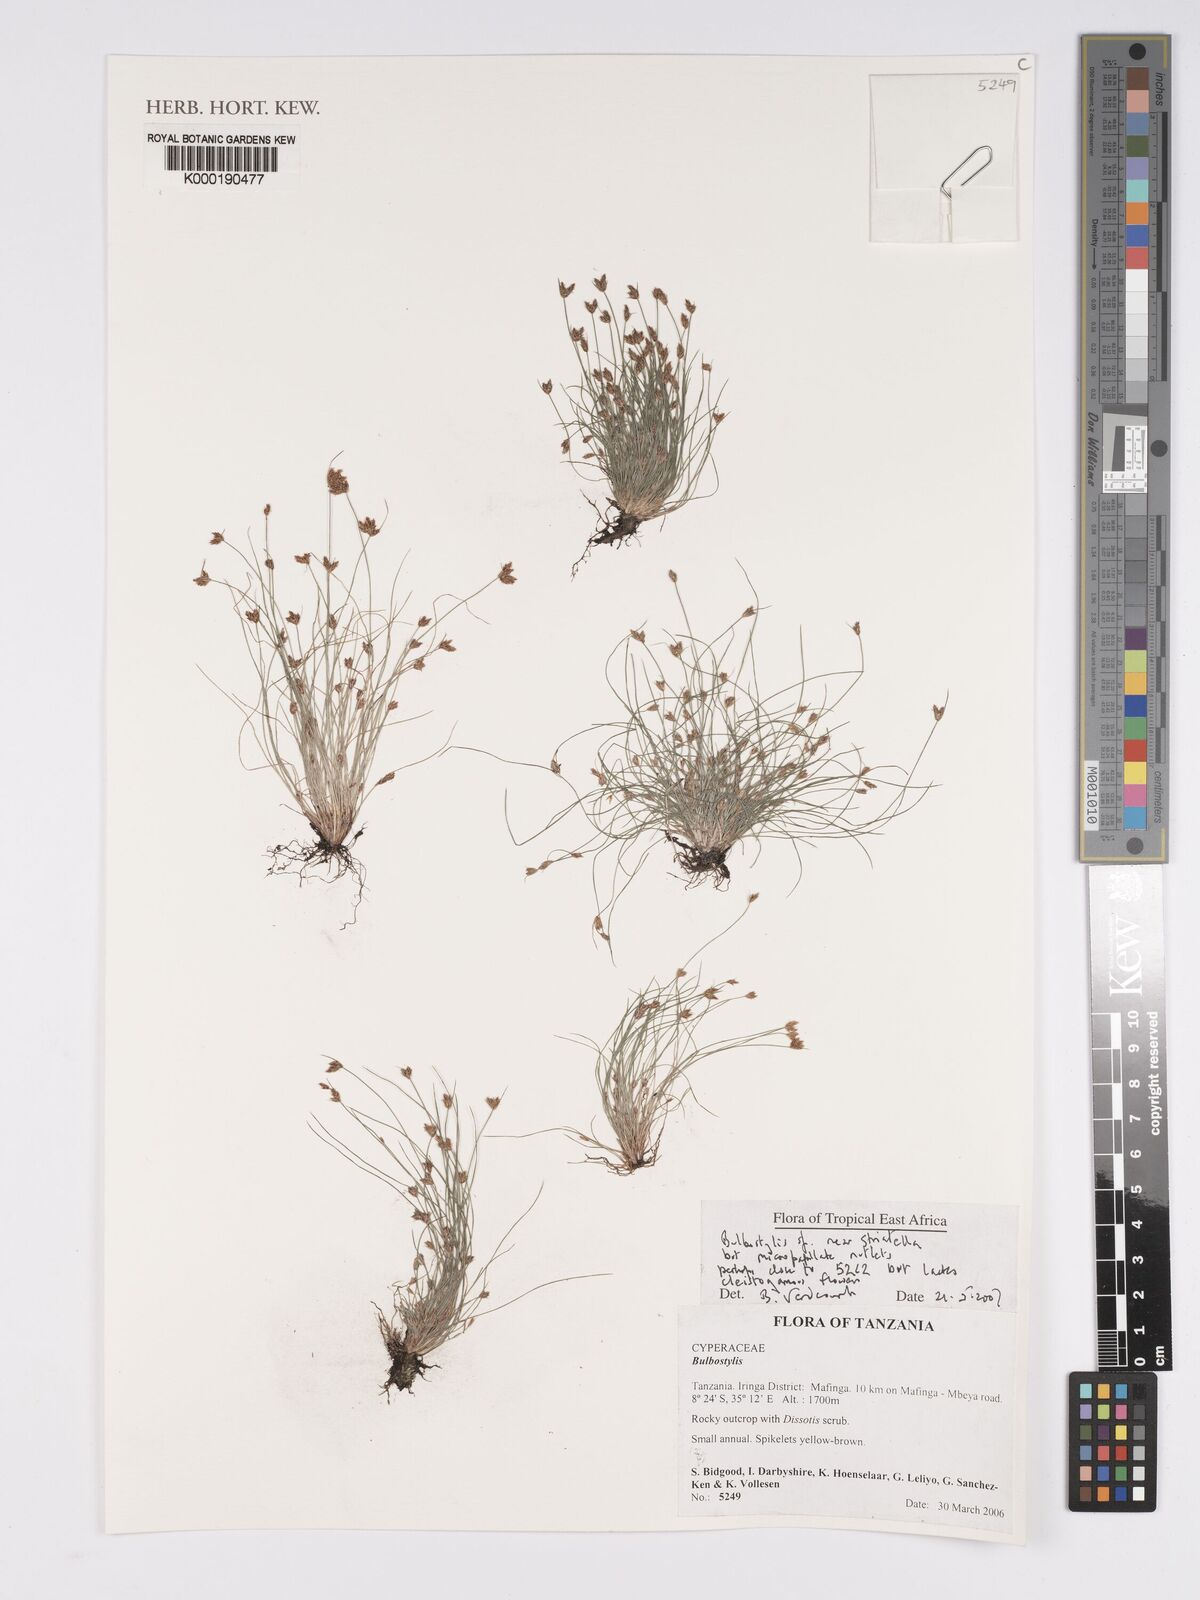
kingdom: Plantae
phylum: Tracheophyta
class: Liliopsida
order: Poales
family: Cyperaceae
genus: Bulbostylis
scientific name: Bulbostylis
